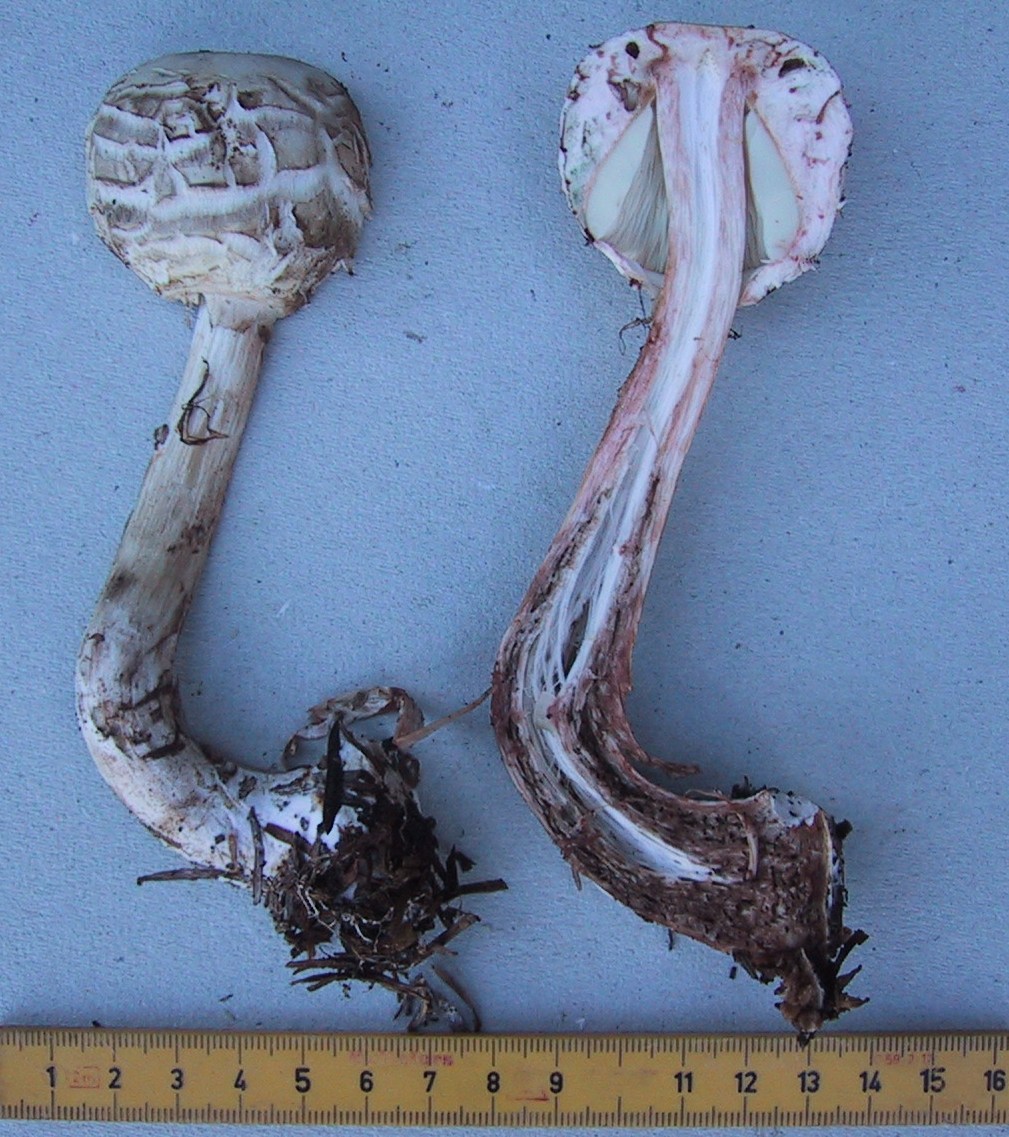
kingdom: Fungi
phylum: Basidiomycota
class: Agaricomycetes
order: Agaricales
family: Agaricaceae
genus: Chlorophyllum
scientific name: Chlorophyllum olivieri
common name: almindelig rabarberhat
